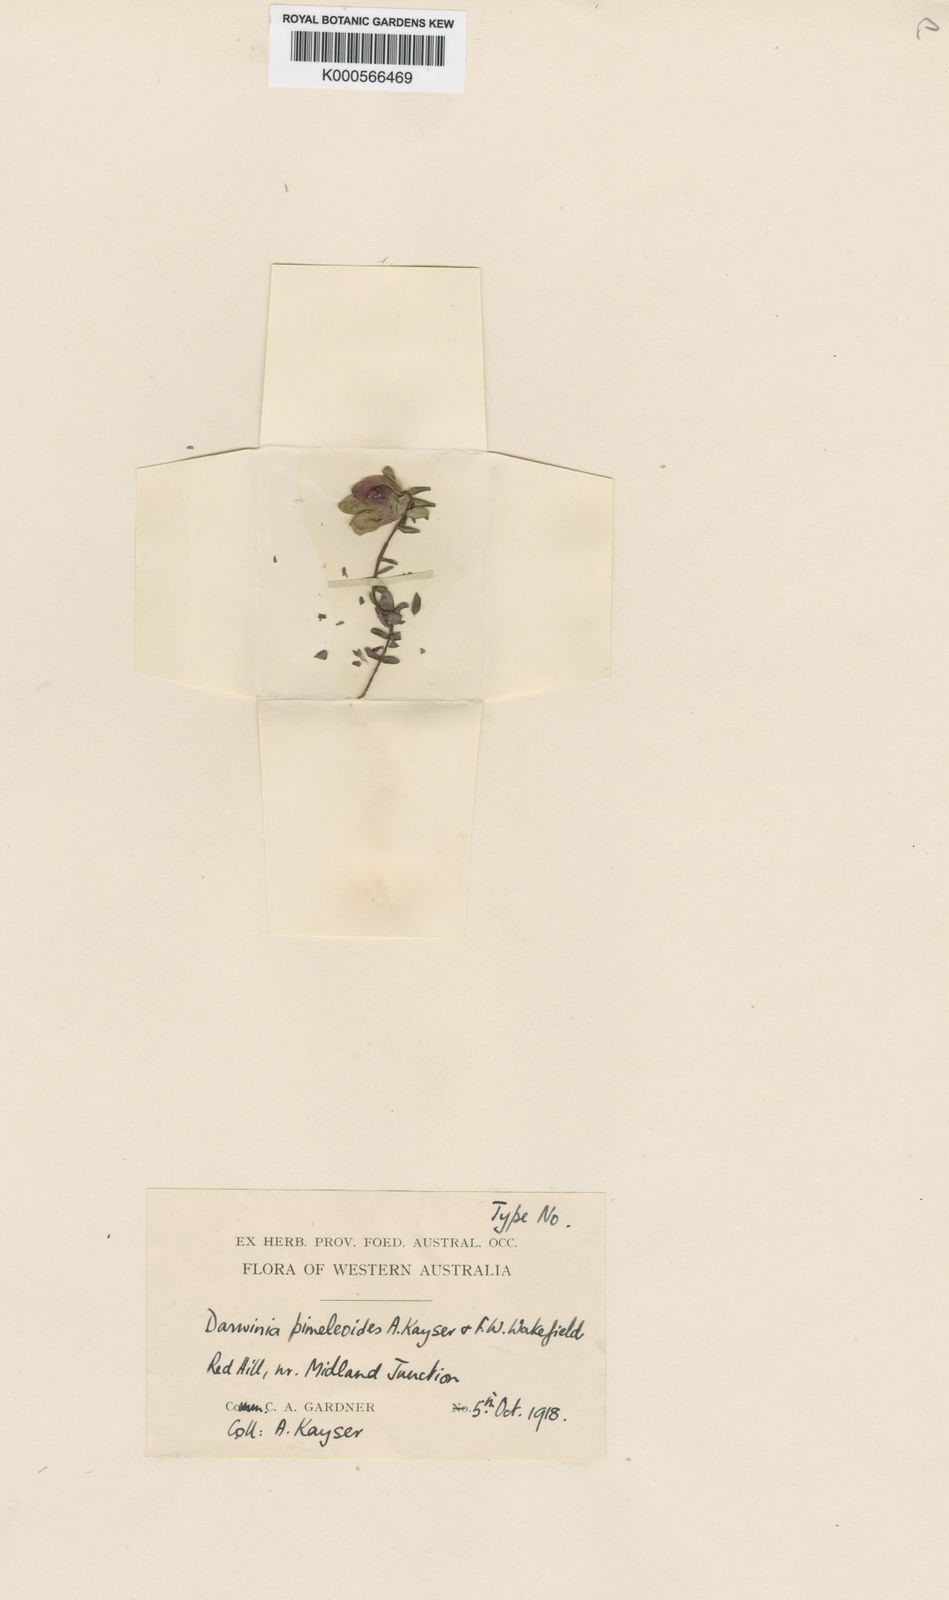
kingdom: Plantae
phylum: Tracheophyta
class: Magnoliopsida
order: Myrtales
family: Myrtaceae
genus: Darwinia
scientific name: Darwinia pimelioides
